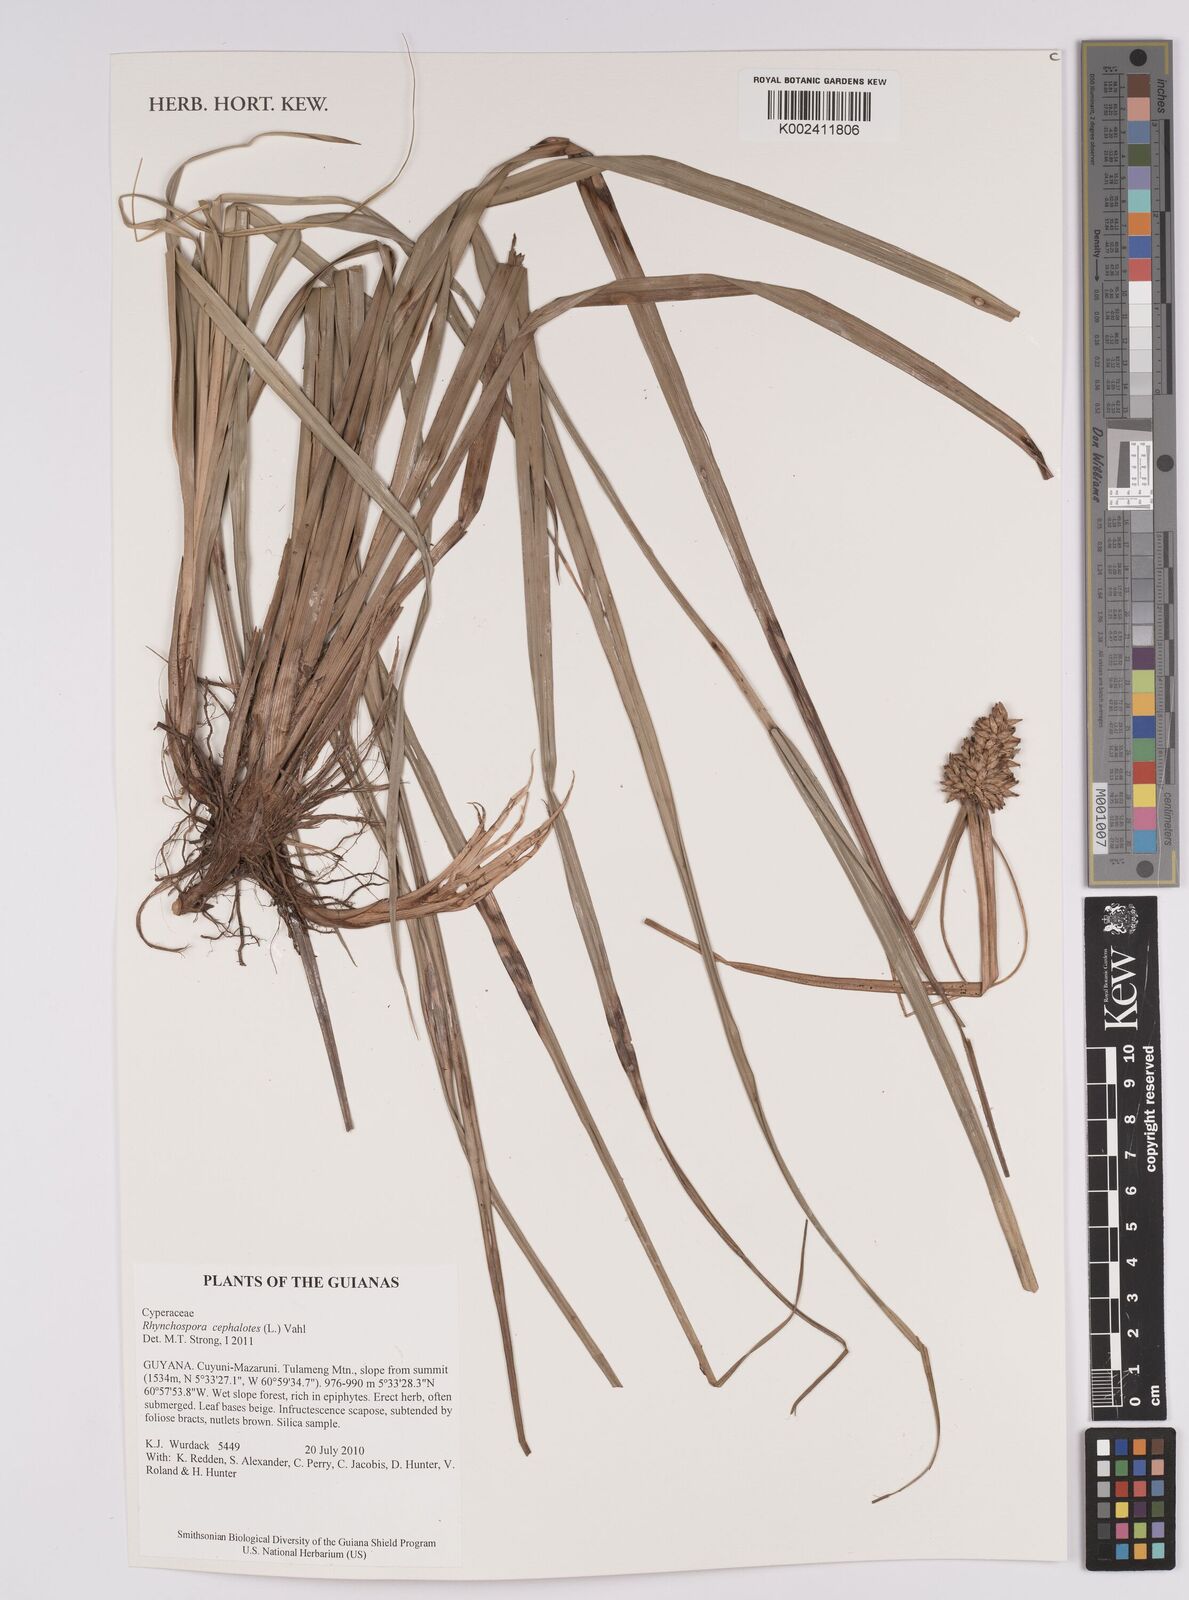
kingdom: Plantae
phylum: Tracheophyta
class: Liliopsida
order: Poales
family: Cyperaceae
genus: Rhynchospora
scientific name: Rhynchospora cephalotes
